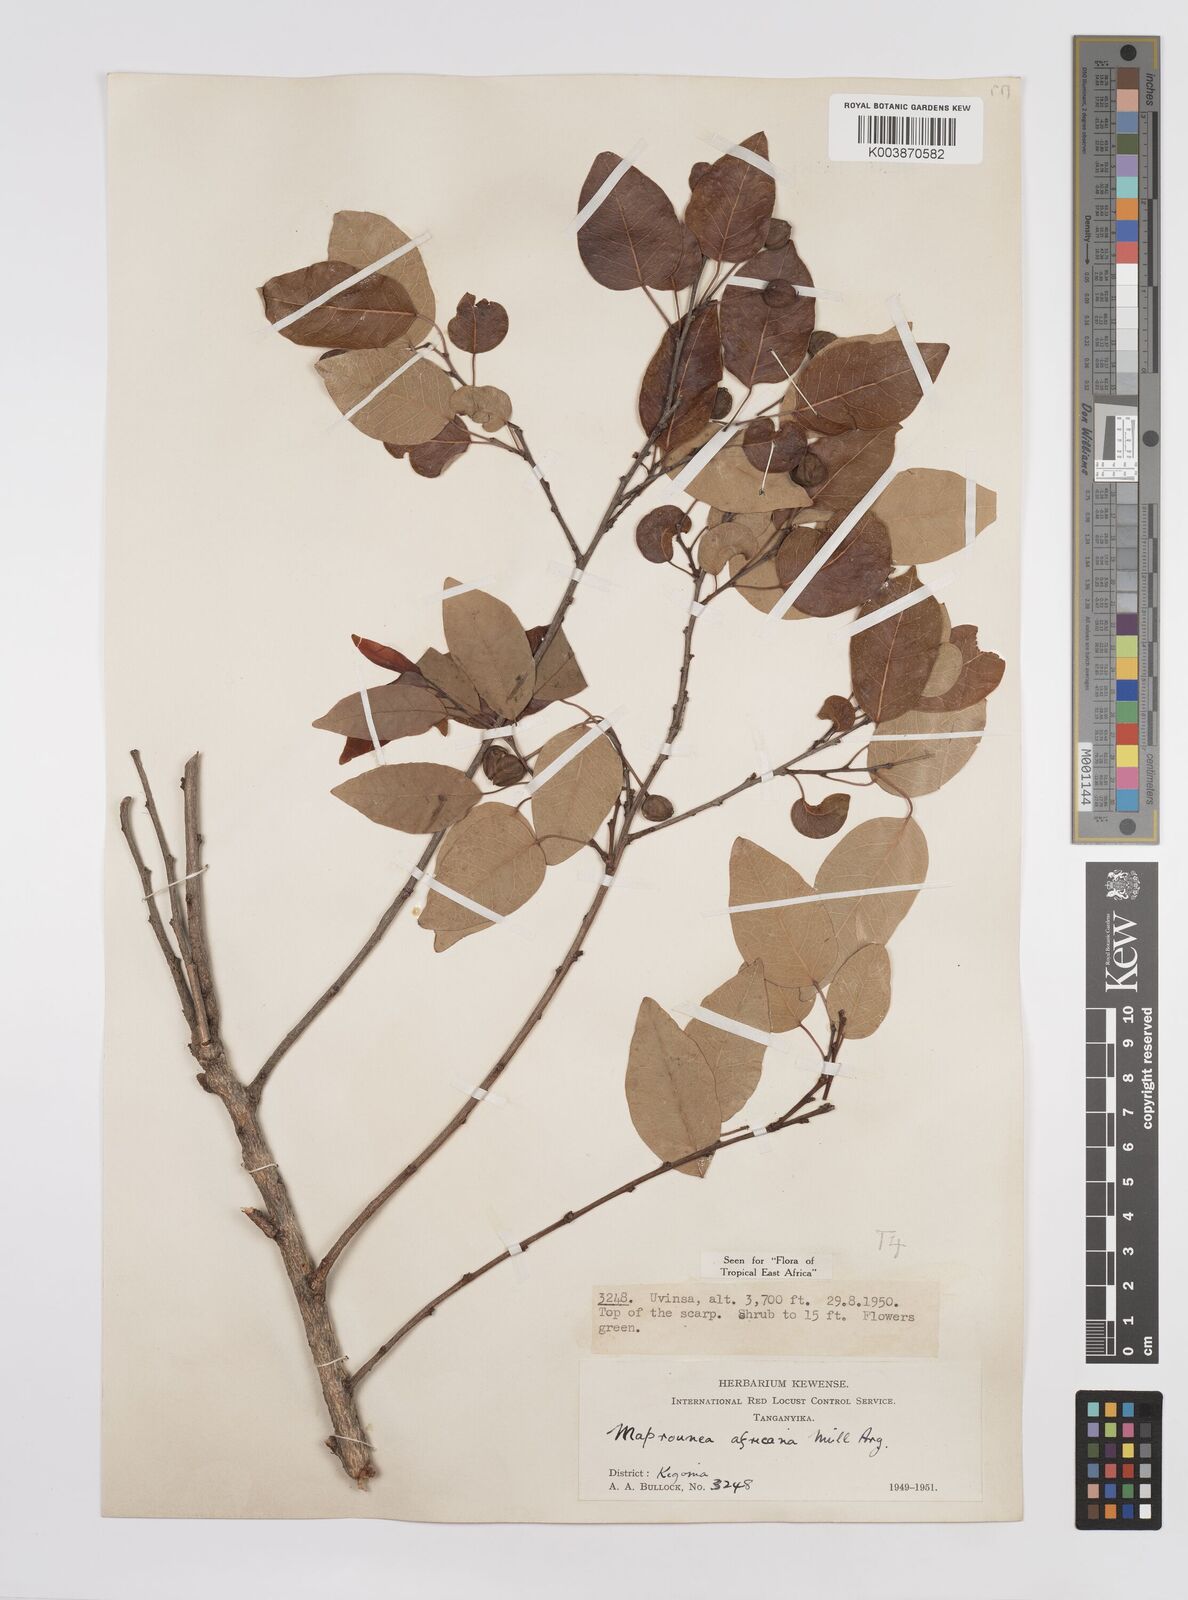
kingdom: Plantae
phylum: Tracheophyta
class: Magnoliopsida
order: Malpighiales
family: Euphorbiaceae
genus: Maprounea
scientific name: Maprounea africana
